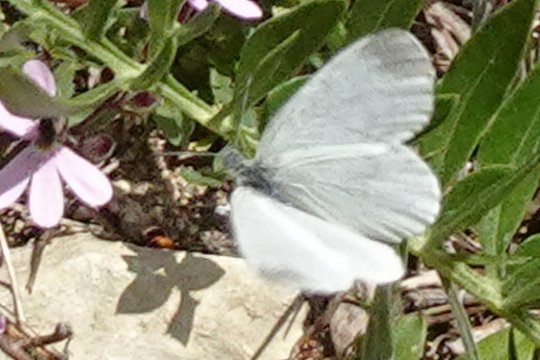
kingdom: Animalia
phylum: Arthropoda
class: Insecta
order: Lepidoptera
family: Pieridae
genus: Leptidea
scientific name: Leptidea sinapis
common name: Wood White
